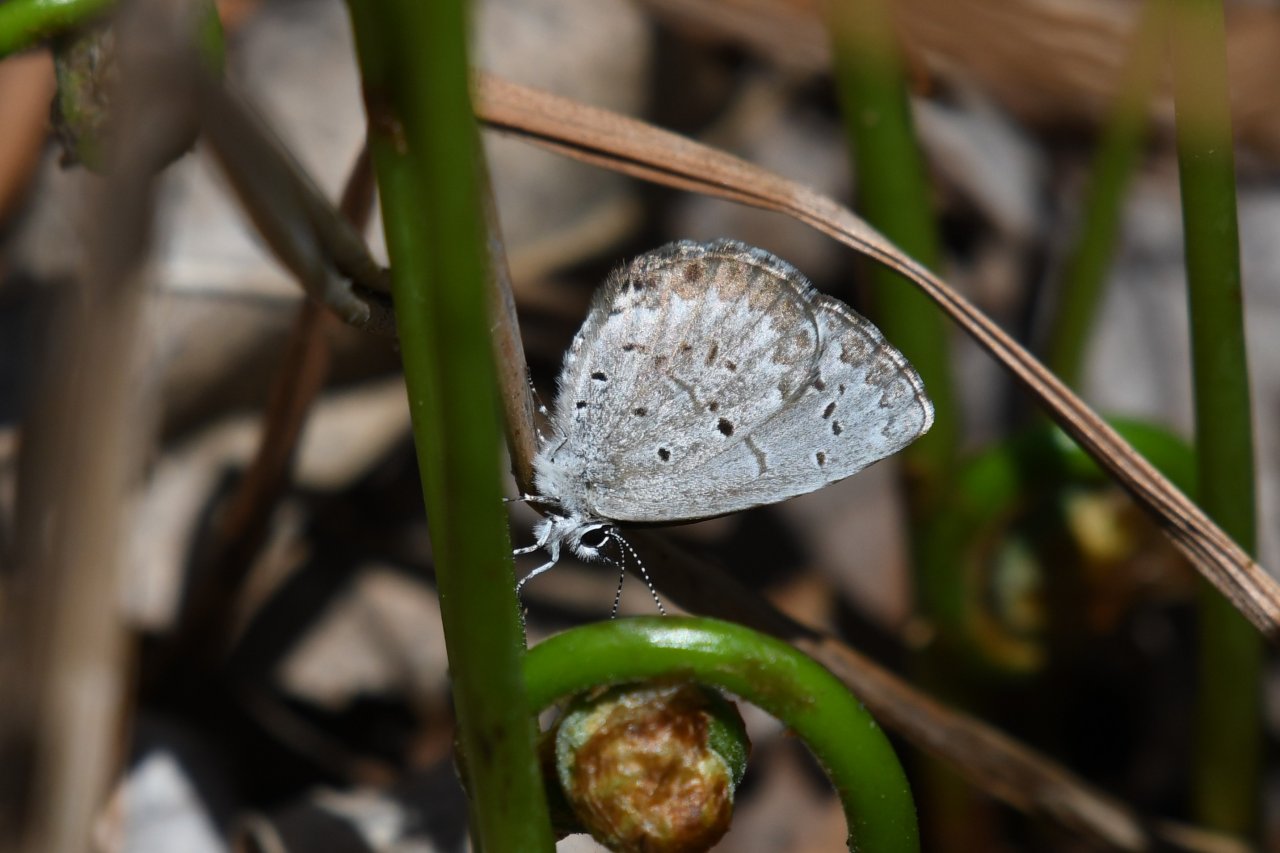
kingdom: Animalia
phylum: Arthropoda
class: Insecta
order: Lepidoptera
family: Lycaenidae
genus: Celastrina
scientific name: Celastrina lucia
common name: Northern Spring Azure
